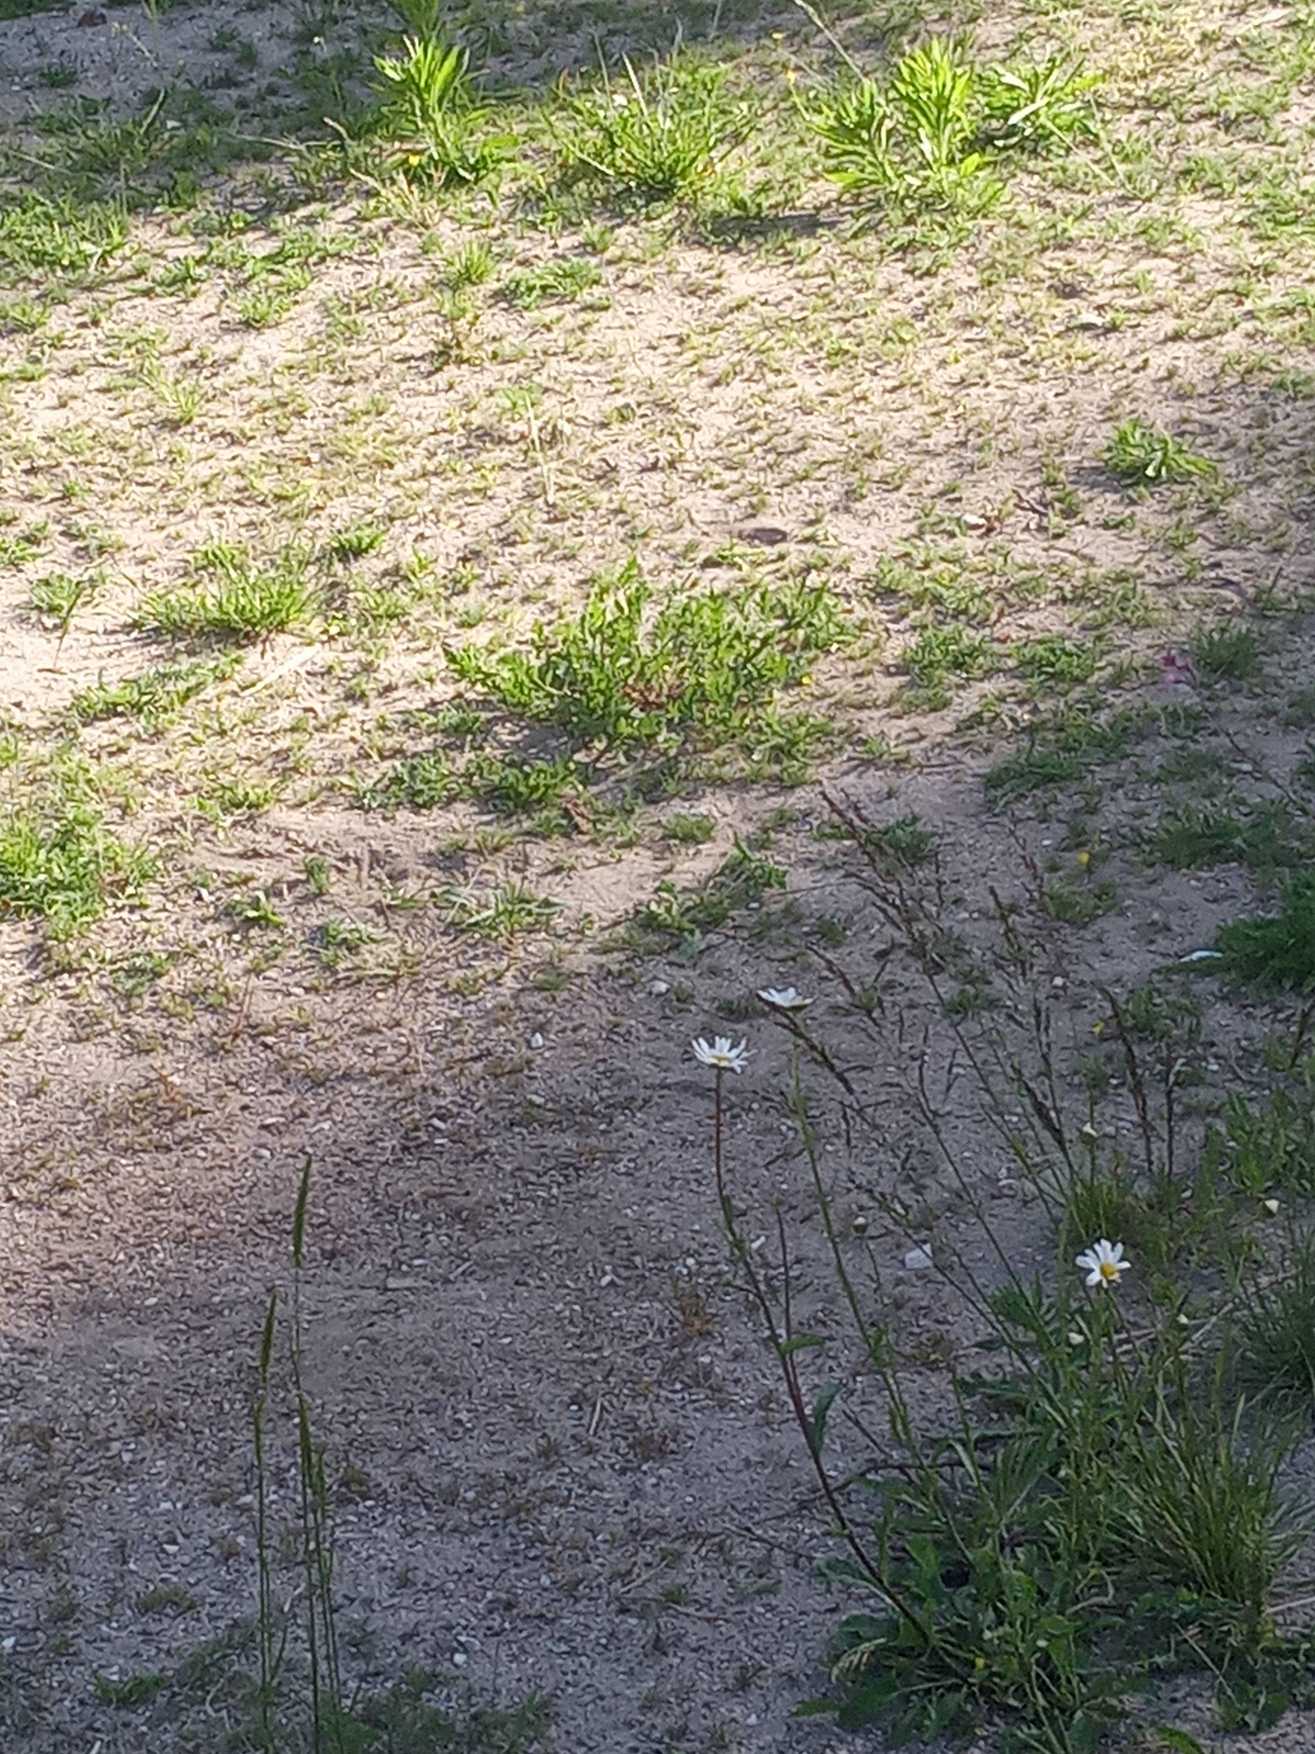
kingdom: Plantae
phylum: Tracheophyta
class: Magnoliopsida
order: Asterales
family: Asteraceae
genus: Leucanthemum
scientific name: Leucanthemum vulgare
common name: Hvid okseøje
